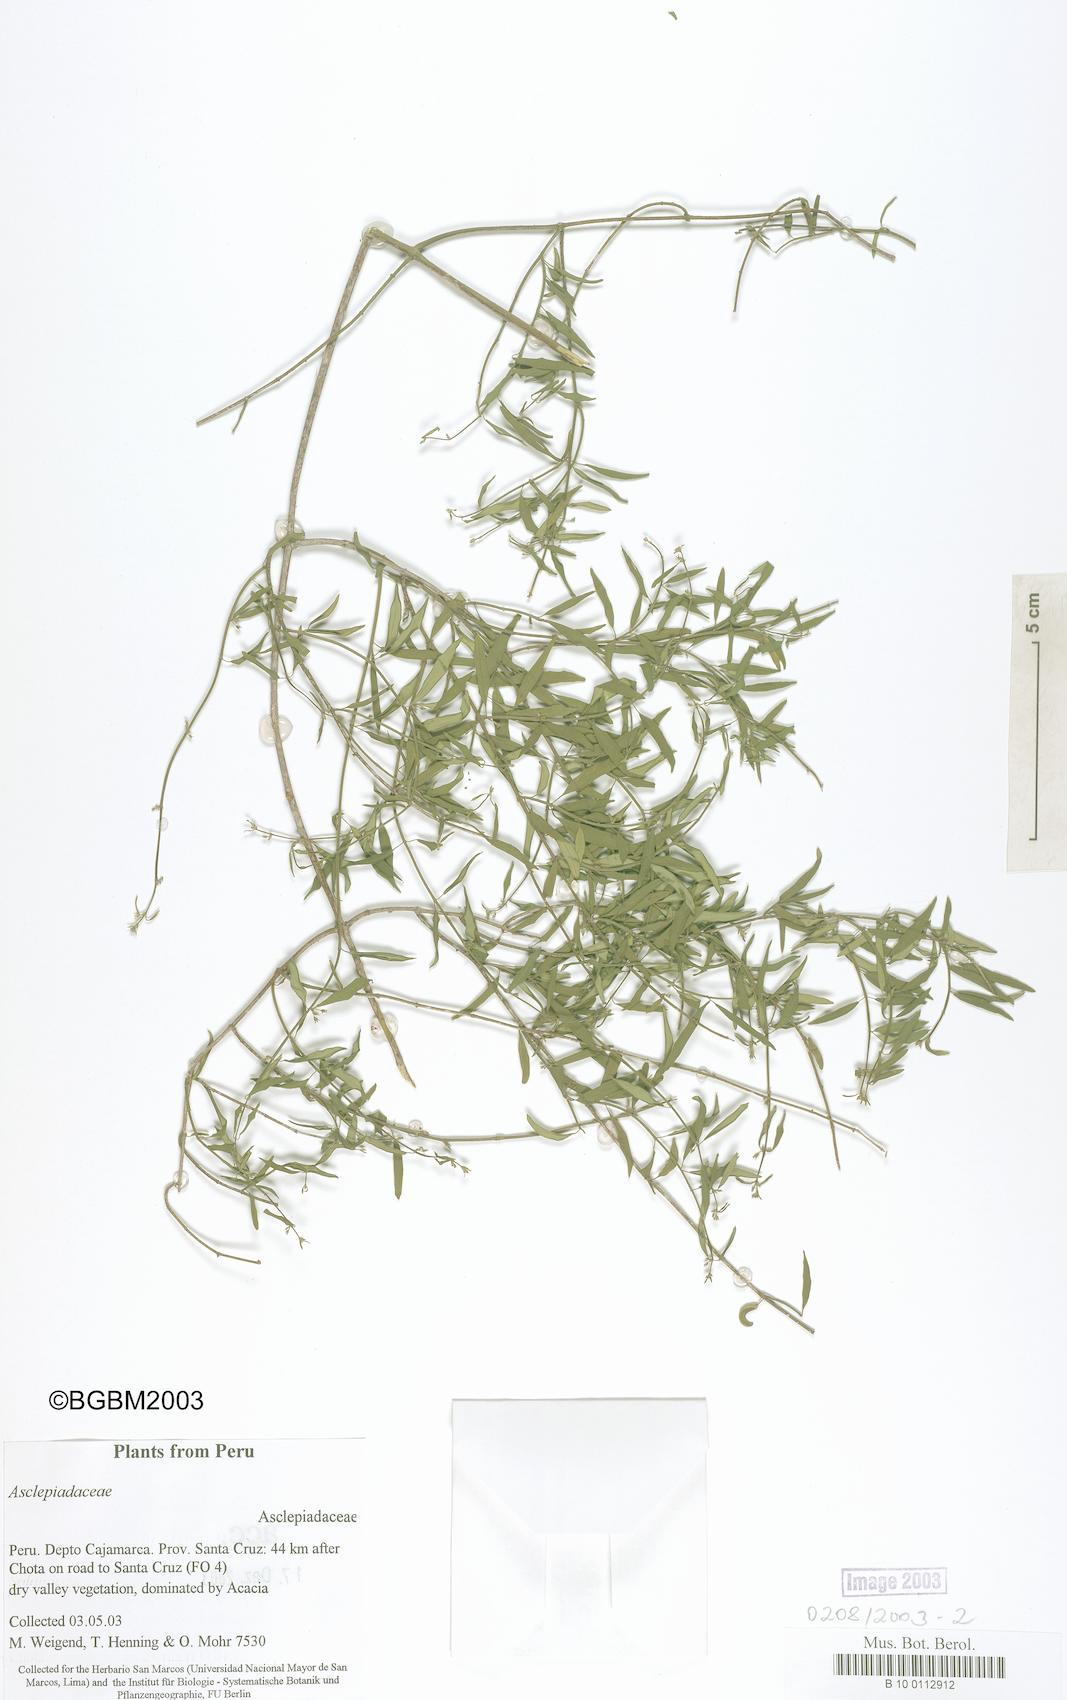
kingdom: Plantae
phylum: Tracheophyta
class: Magnoliopsida
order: Gentianales
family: Apocynaceae
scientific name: Apocynaceae
